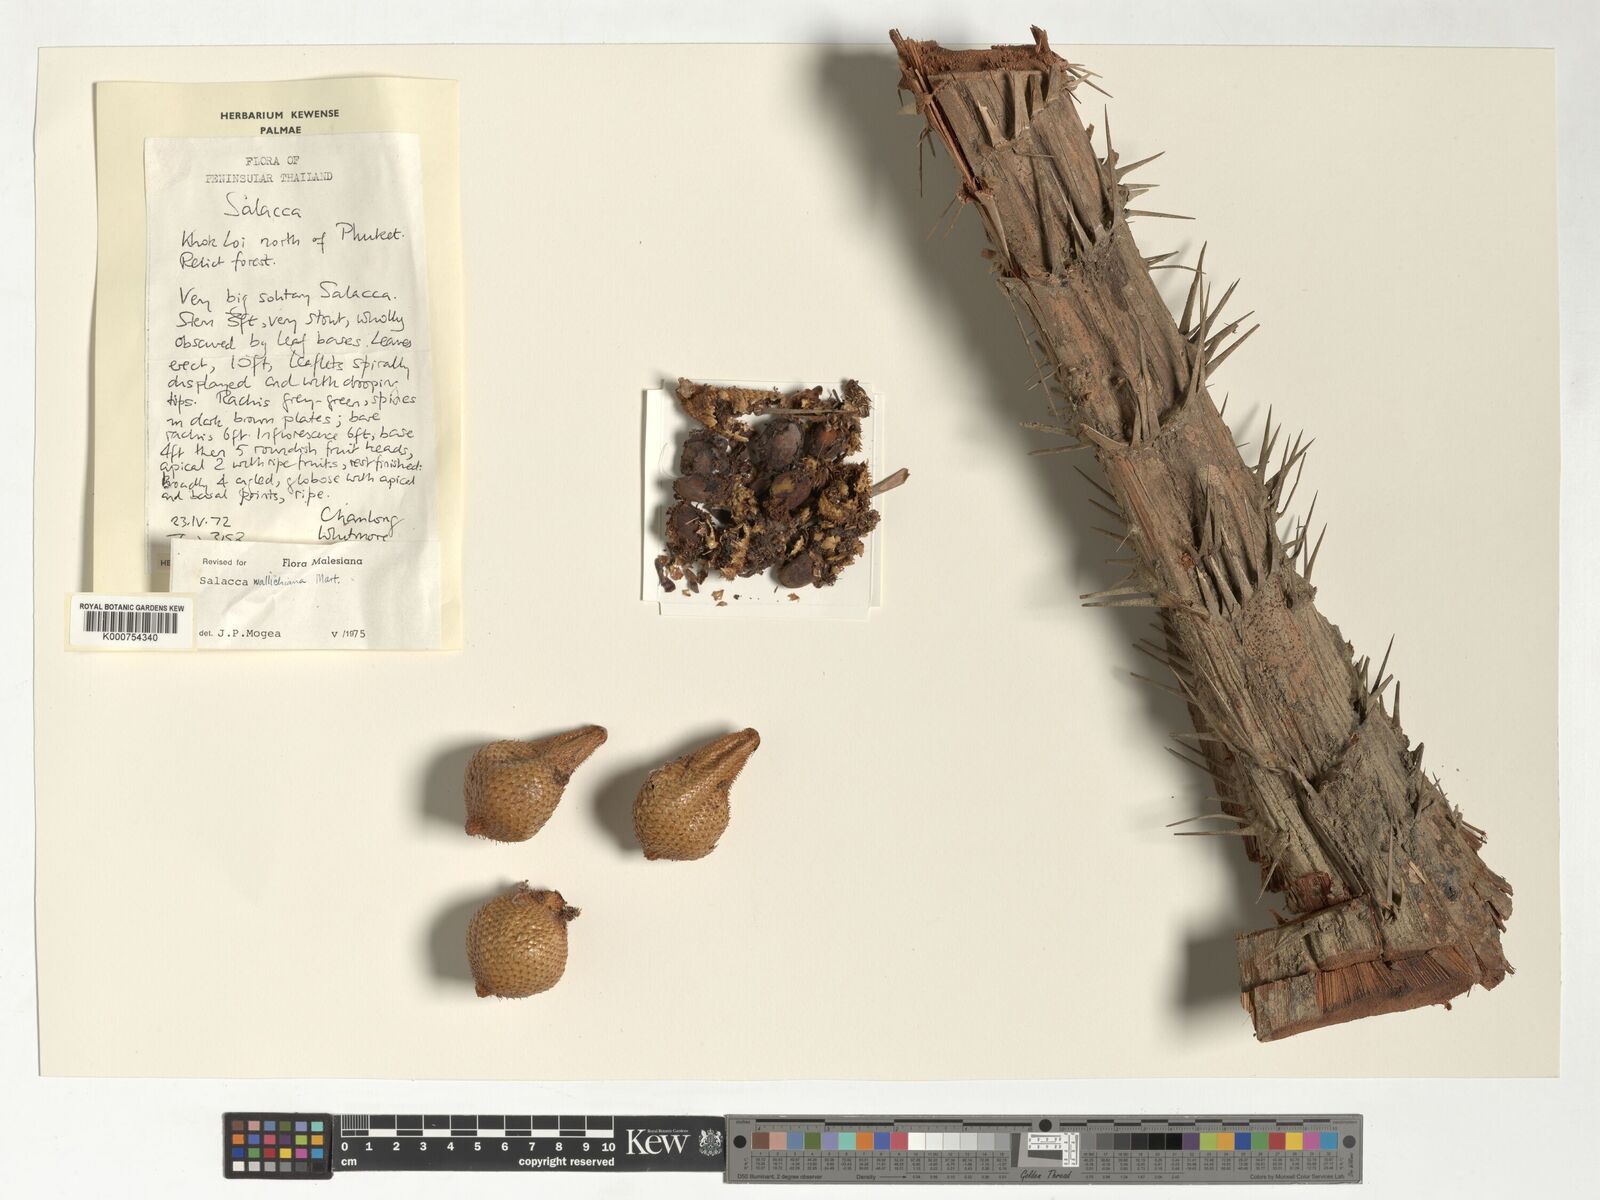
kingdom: Plantae
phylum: Tracheophyta
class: Liliopsida
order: Arecales
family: Arecaceae
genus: Salacca
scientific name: Salacca wallichiana
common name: Rakum palm
